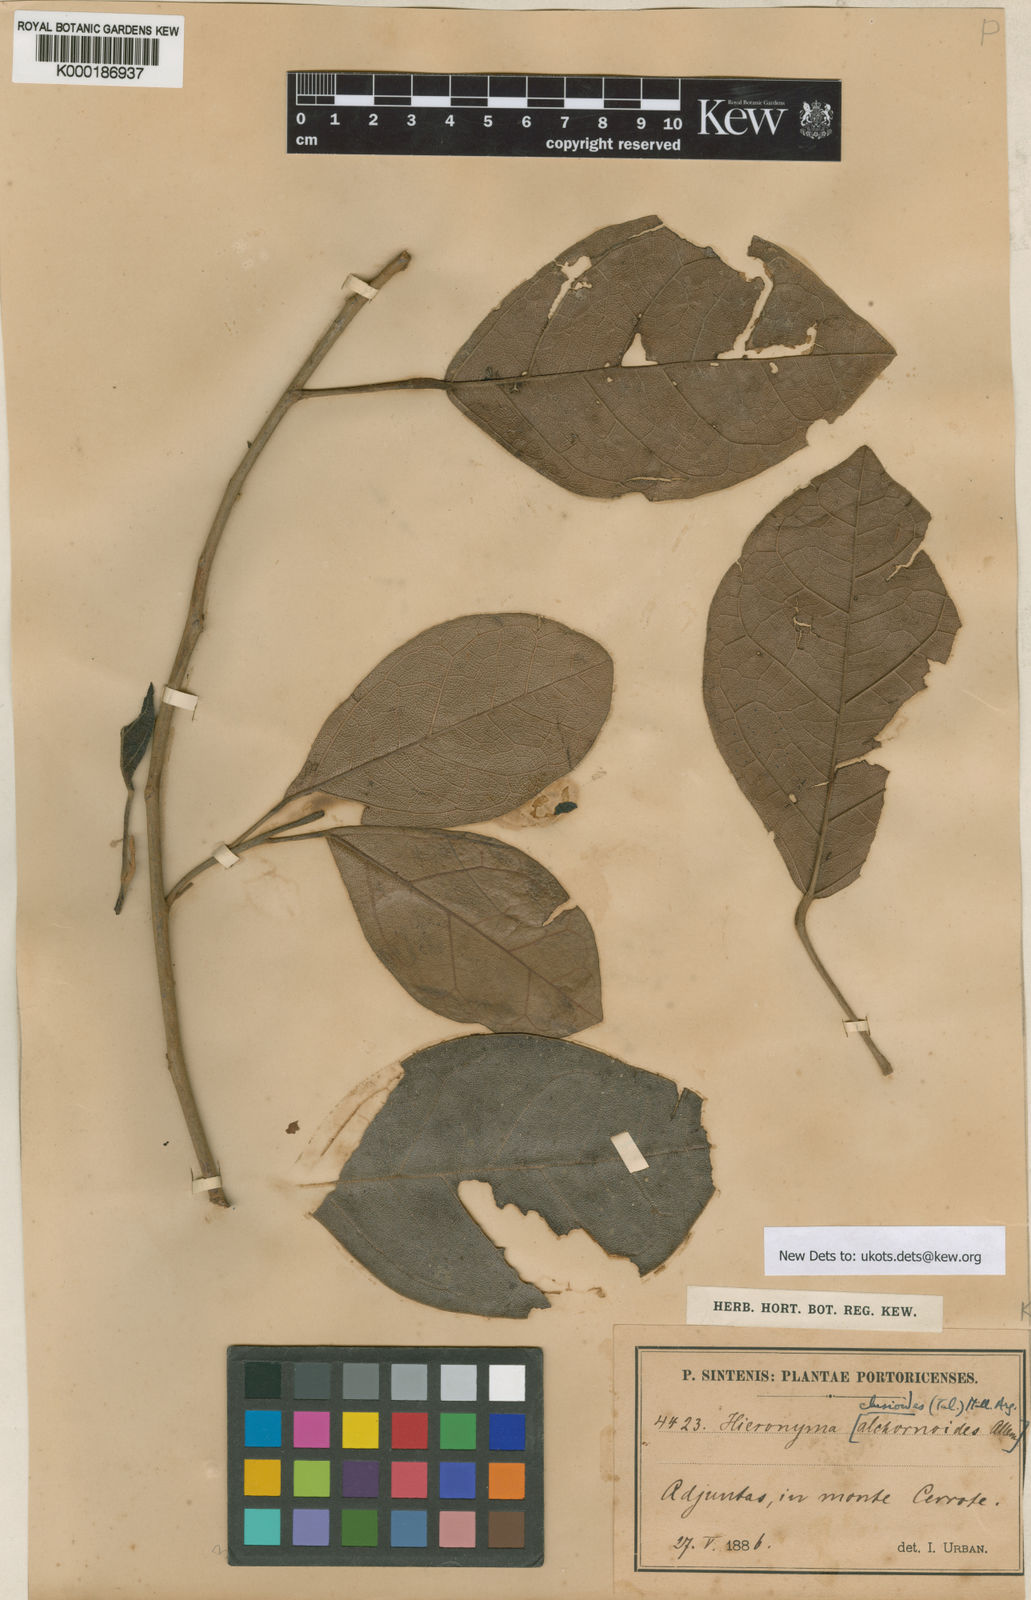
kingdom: Plantae
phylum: Tracheophyta
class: Magnoliopsida
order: Malpighiales
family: Phyllanthaceae
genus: Hieronyma
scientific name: Hieronyma clusioides
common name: Cedro macho
